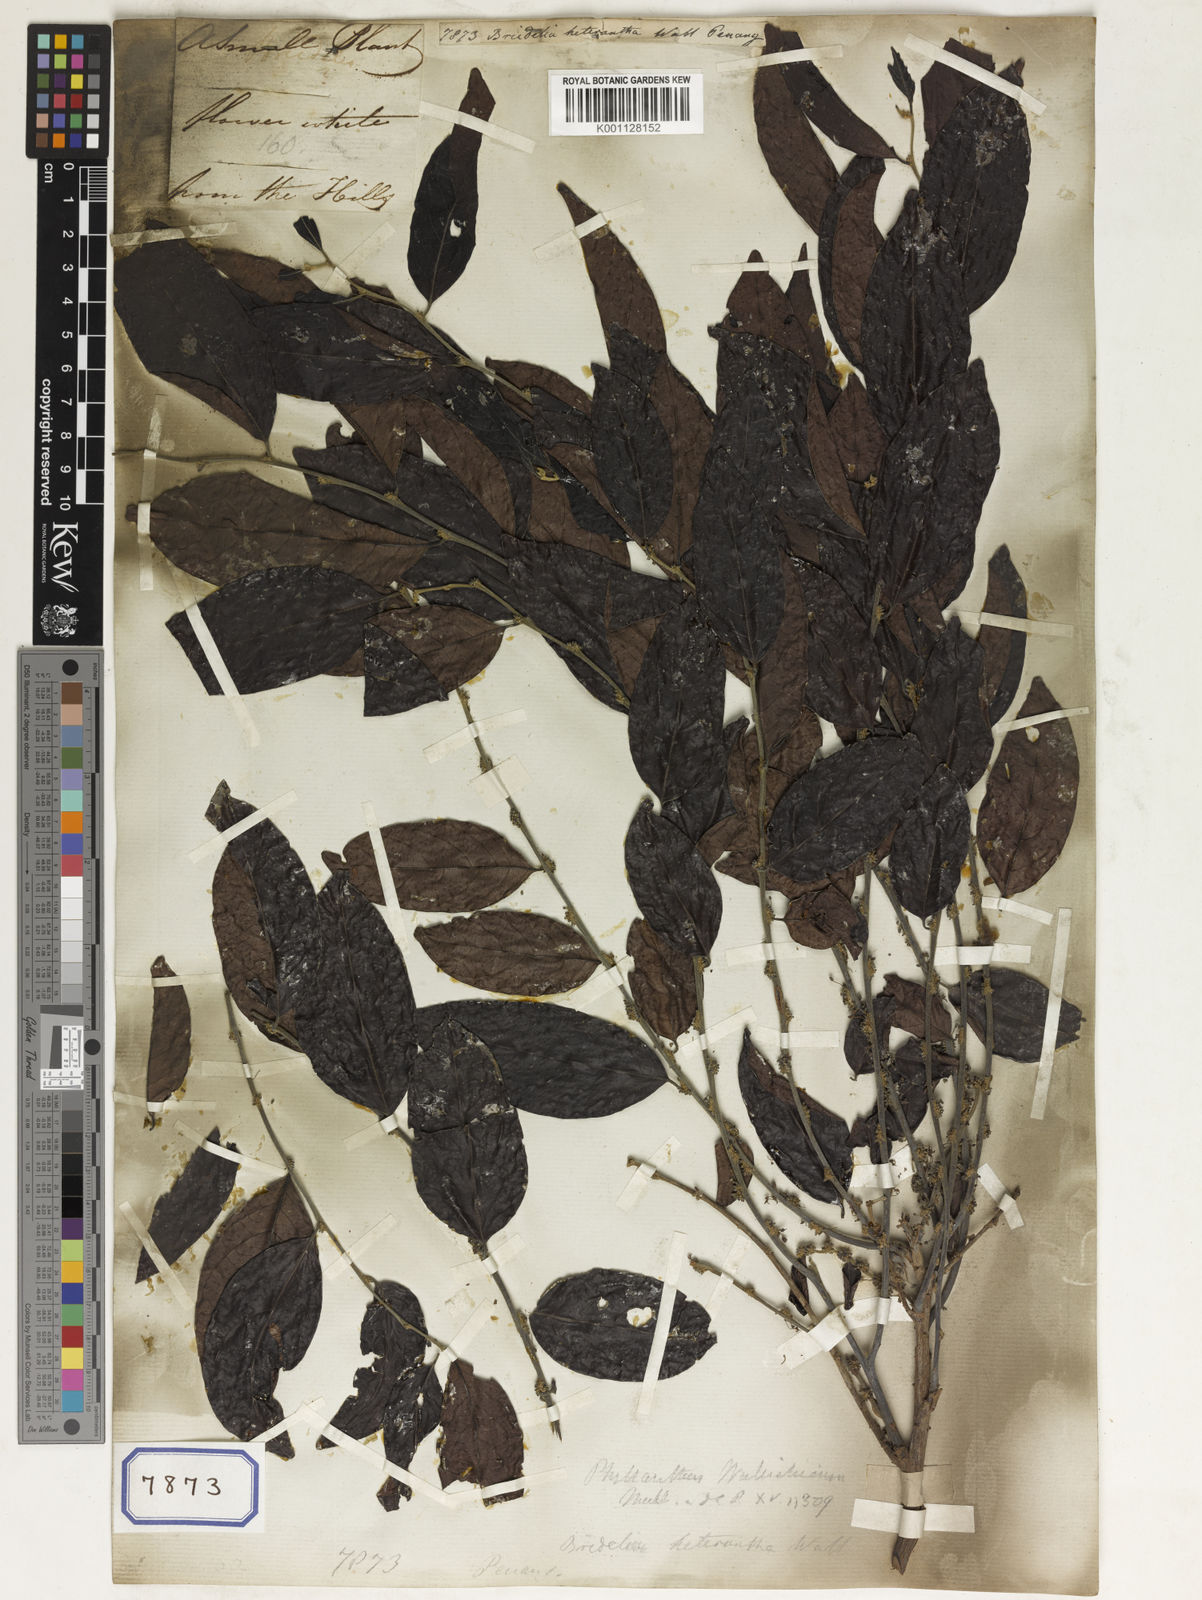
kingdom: Plantae
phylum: Tracheophyta
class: Magnoliopsida
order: Malpighiales
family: Phyllanthaceae
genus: Bridelia
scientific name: Bridelia
